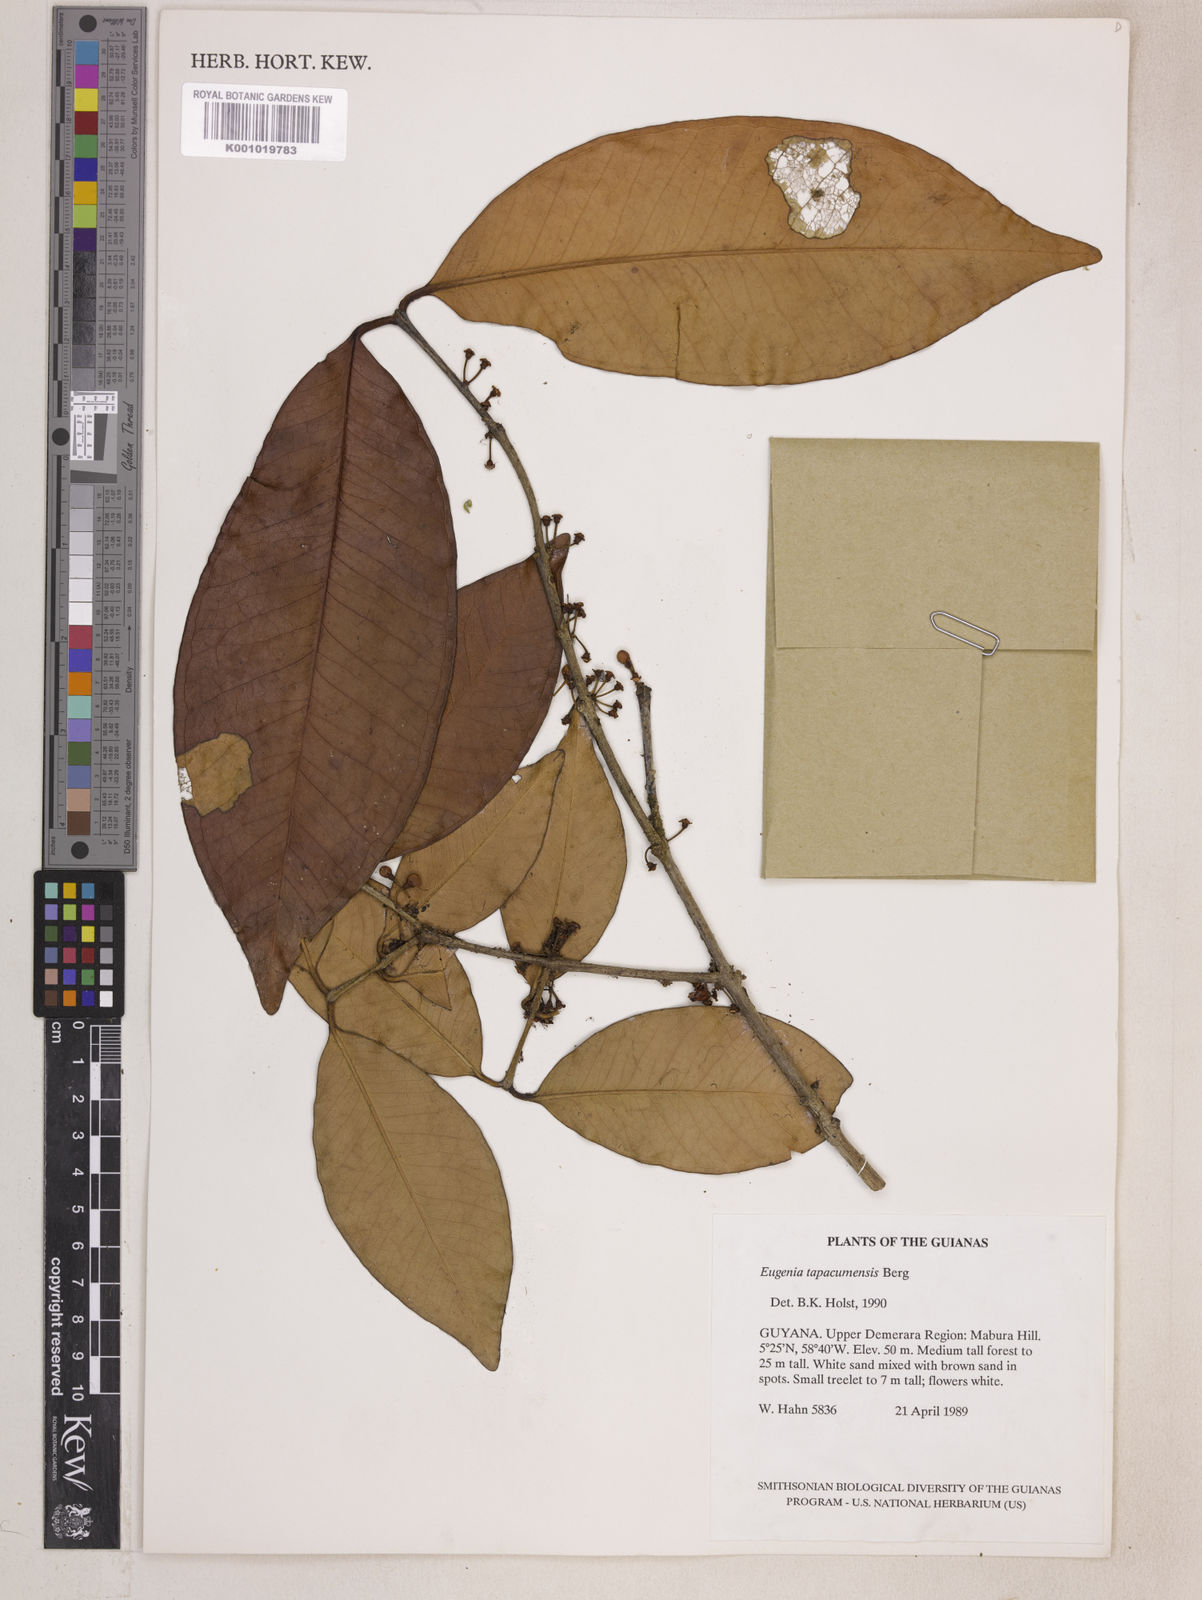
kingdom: Plantae
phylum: Tracheophyta
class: Magnoliopsida
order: Myrtales
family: Myrtaceae
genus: Eugenia
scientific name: Eugenia stictopetala
